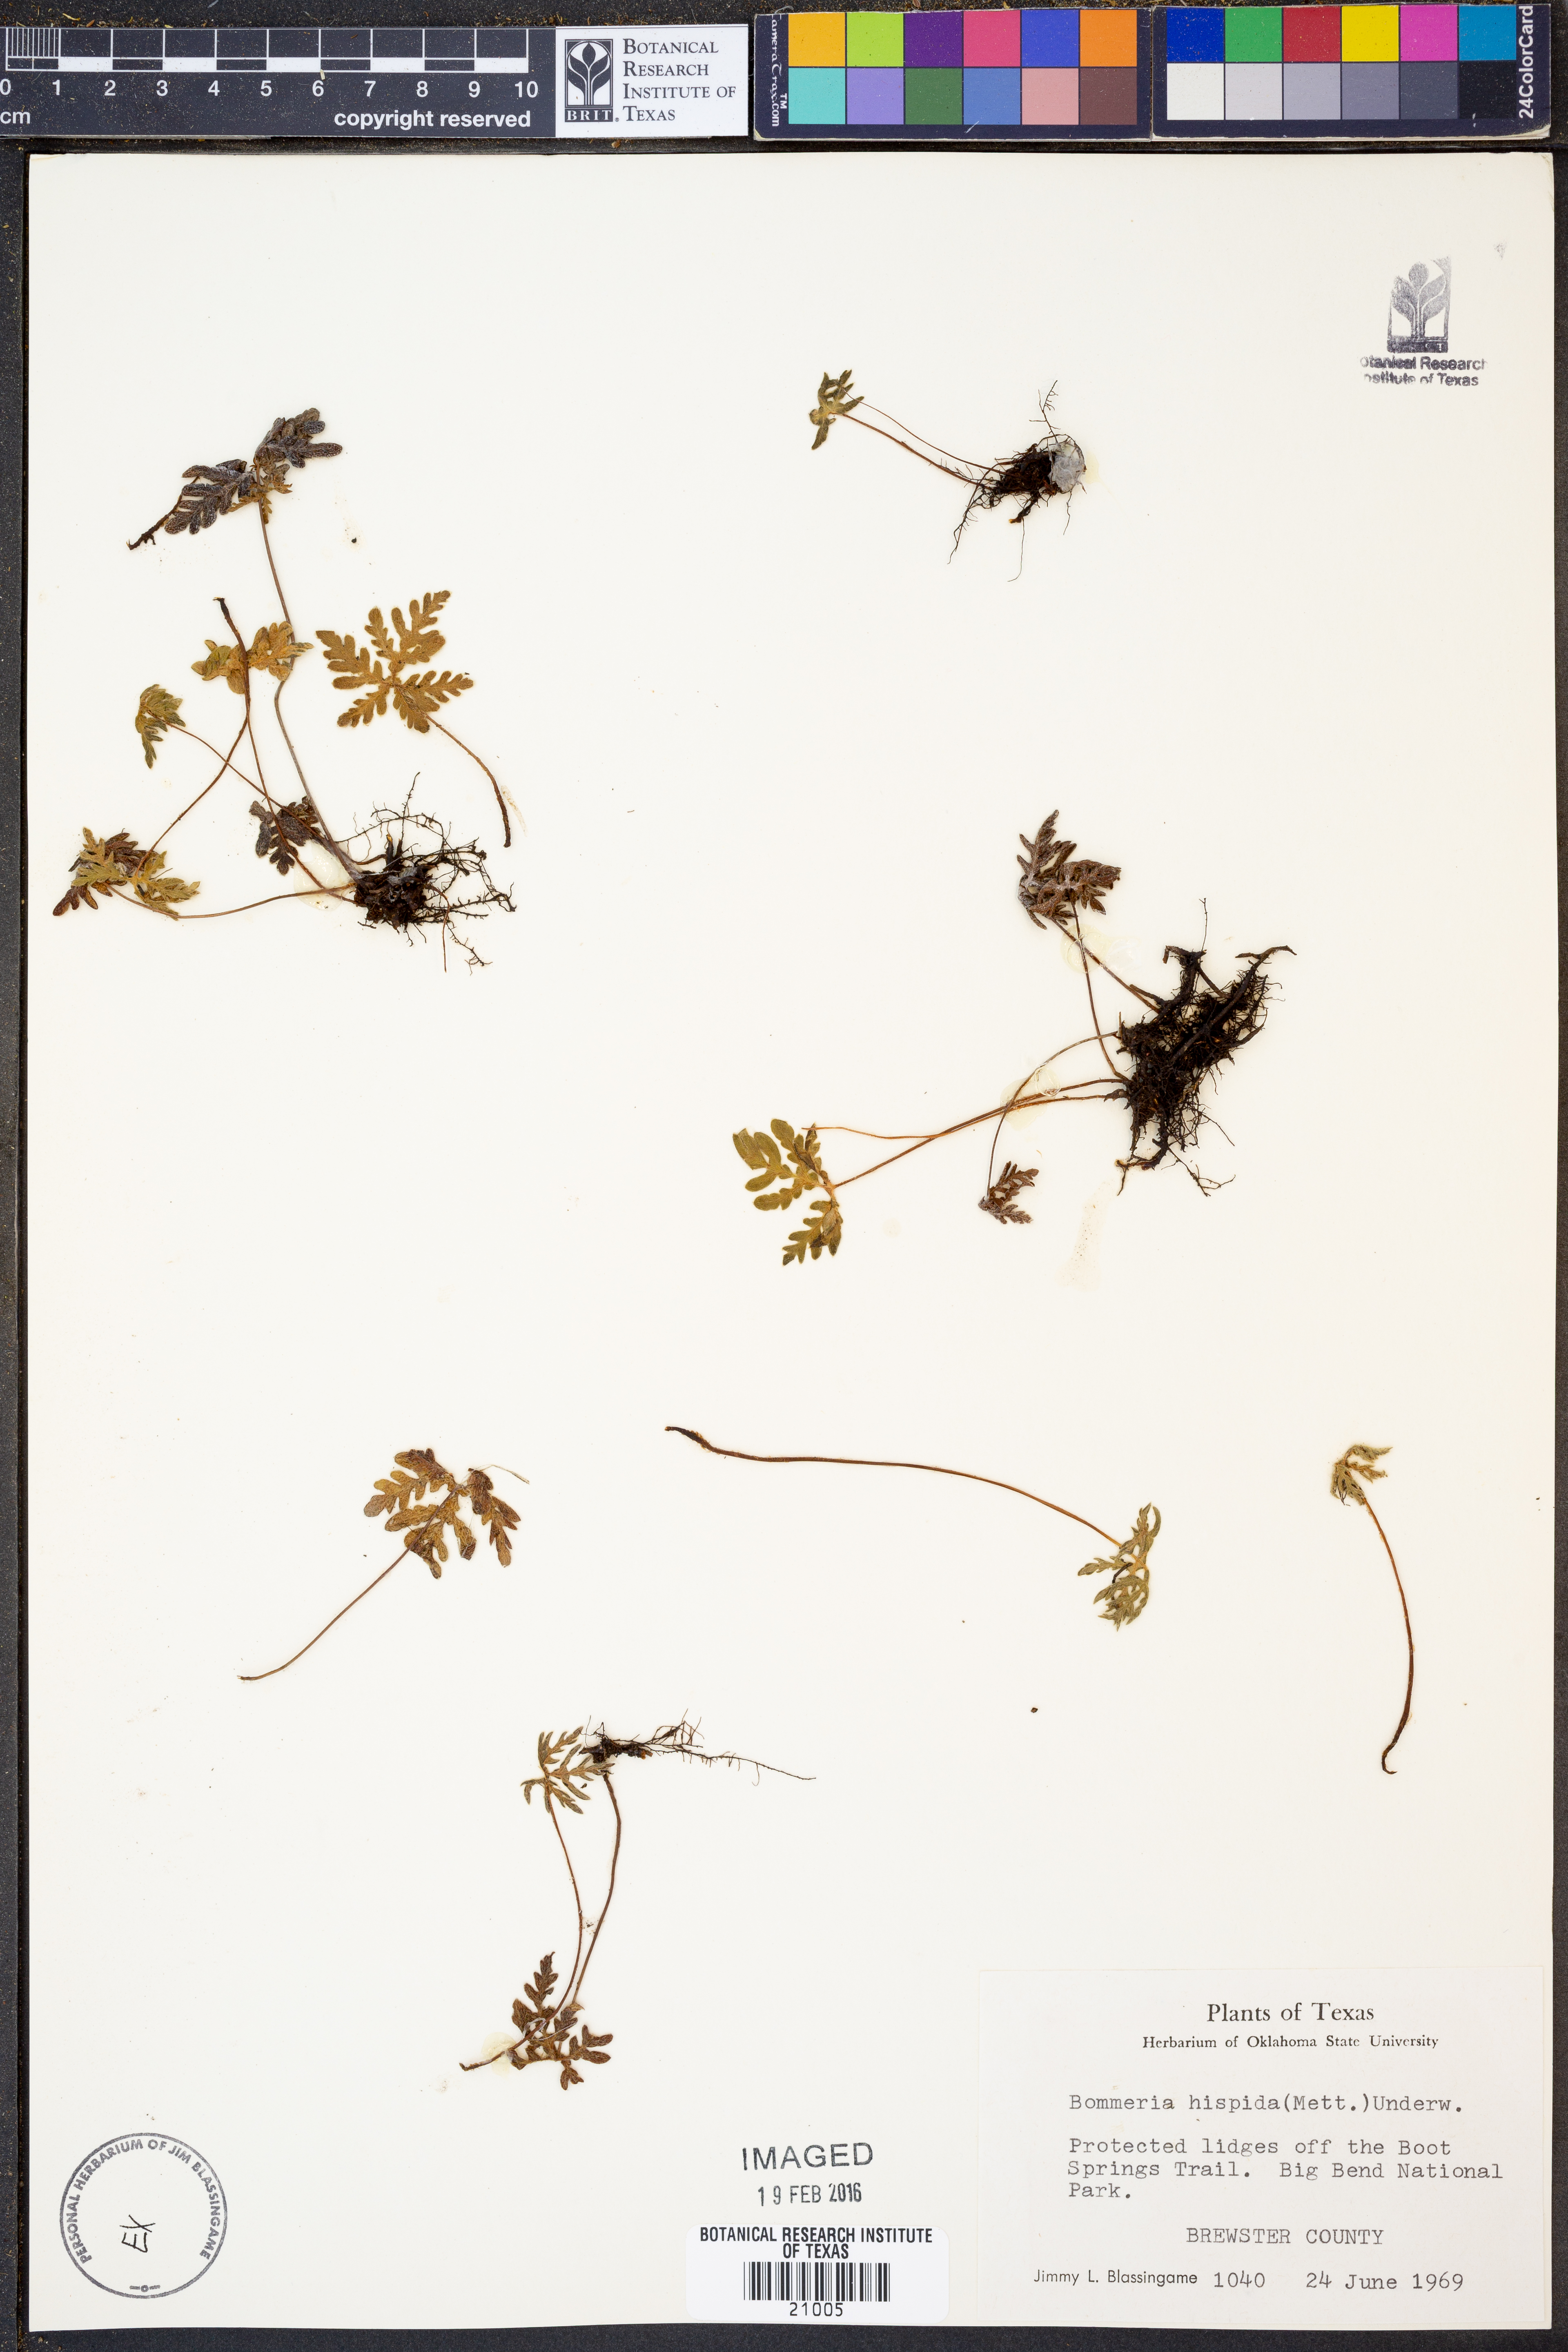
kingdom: Plantae
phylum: Tracheophyta
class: Polypodiopsida
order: Polypodiales
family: Pteridaceae
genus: Bommeria
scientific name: Bommeria hispida
